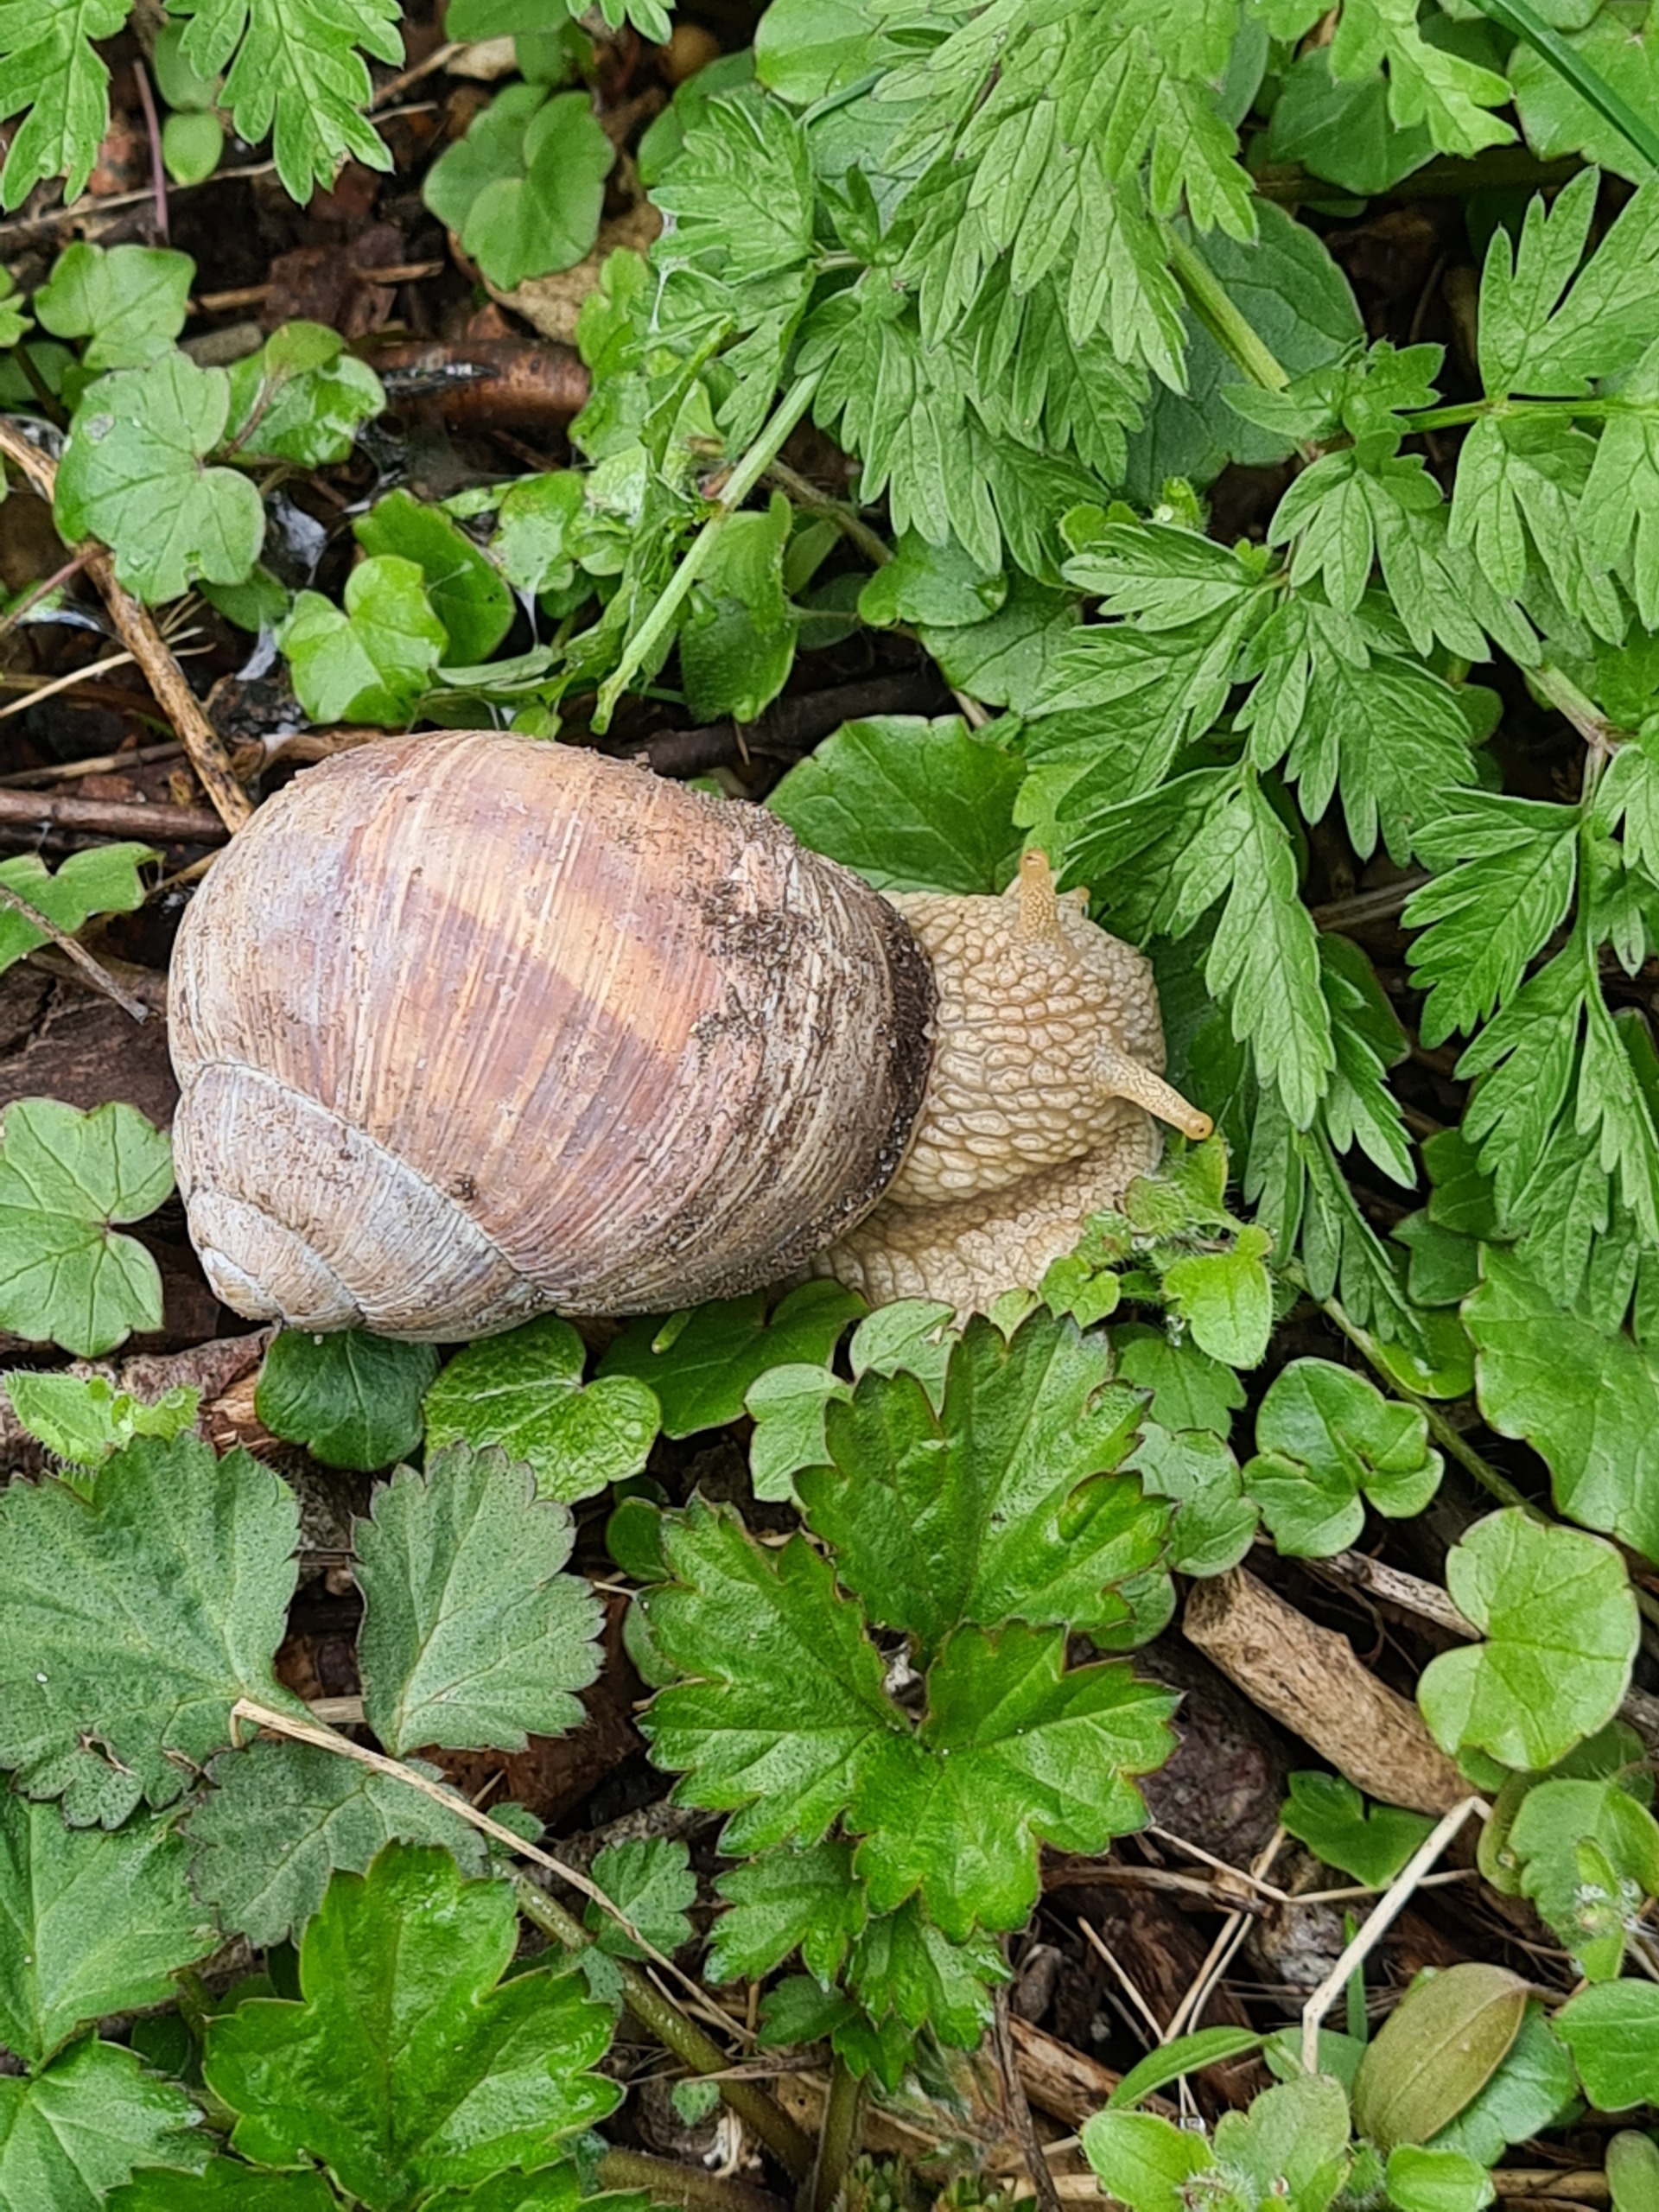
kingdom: Animalia
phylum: Mollusca
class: Gastropoda
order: Stylommatophora
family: Helicidae
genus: Helix
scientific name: Helix pomatia
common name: Vinbjergsnegl
